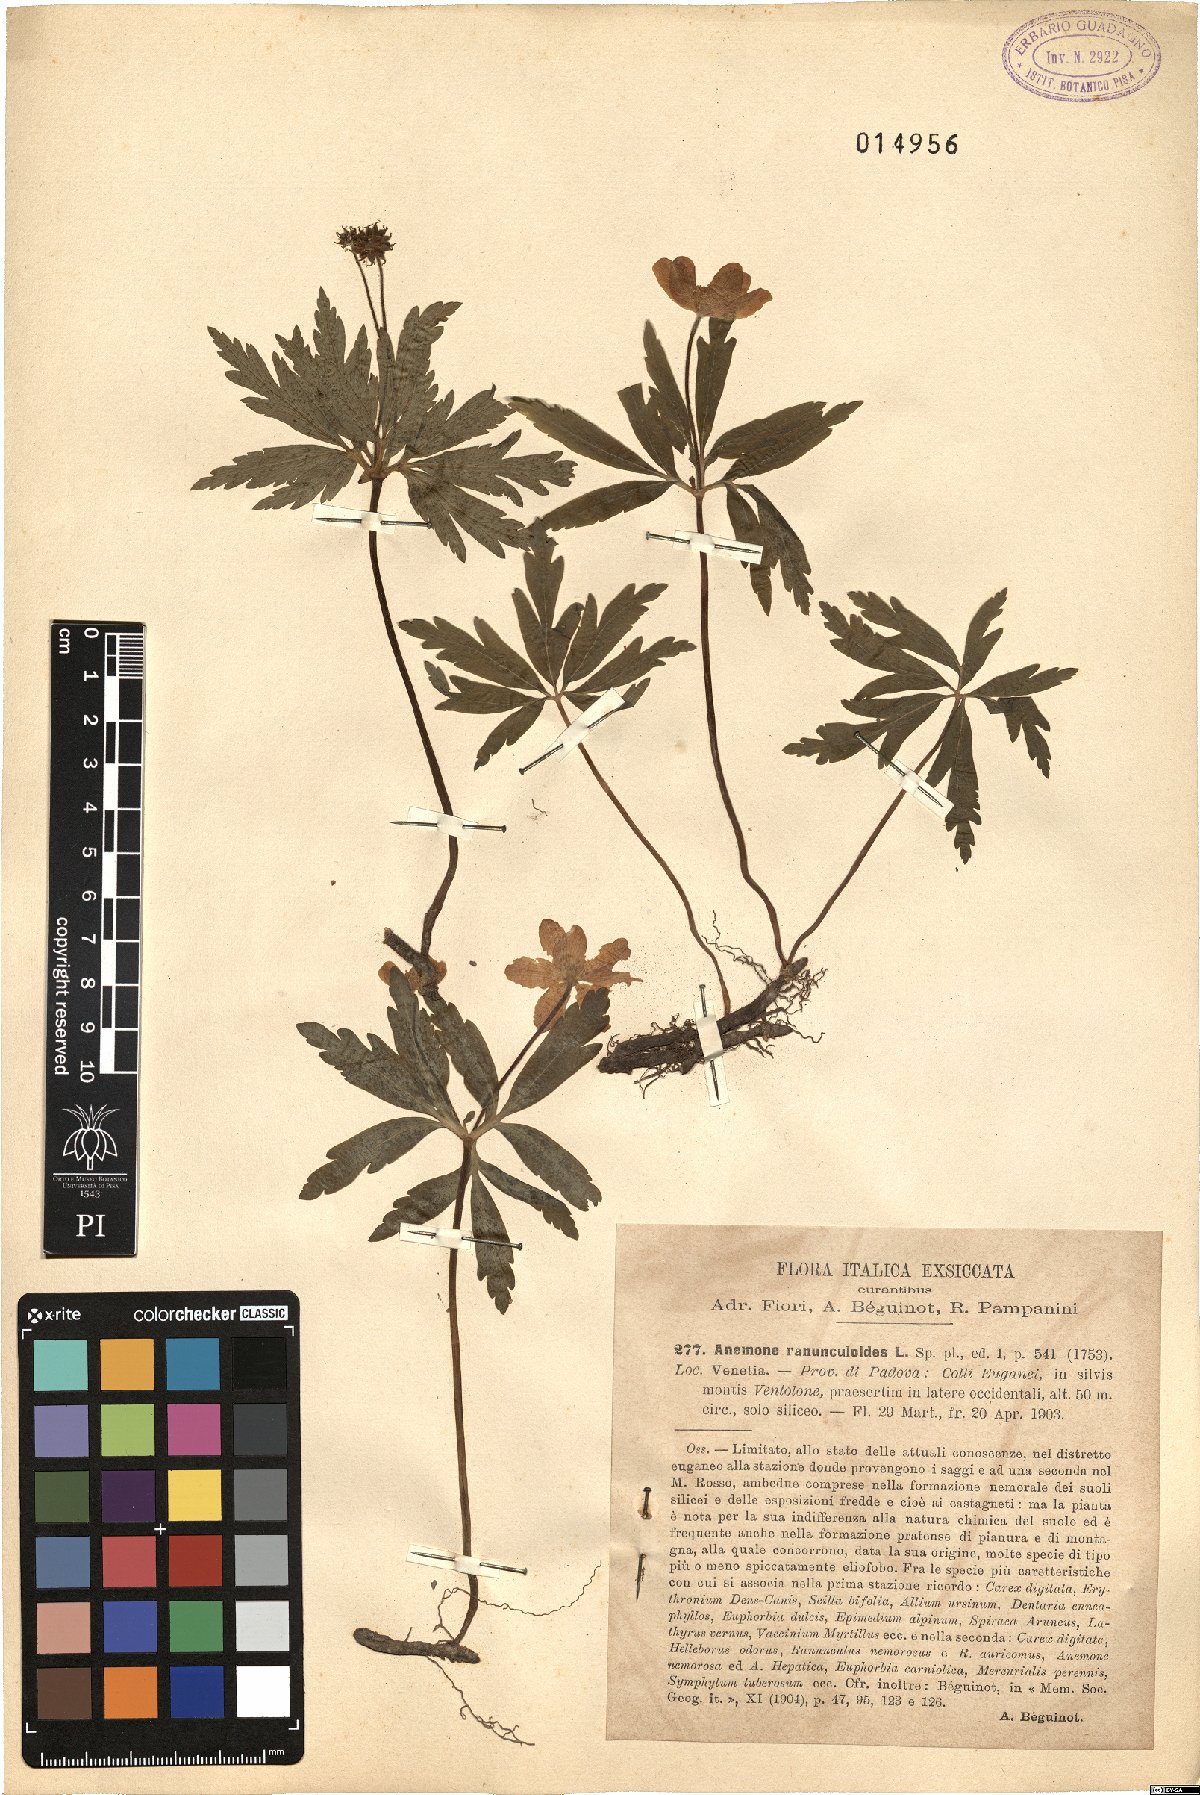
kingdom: Plantae
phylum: Tracheophyta
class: Magnoliopsida
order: Ranunculales
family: Ranunculaceae
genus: Anemone
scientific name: Anemone ranunculoides
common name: Yellow anemone
